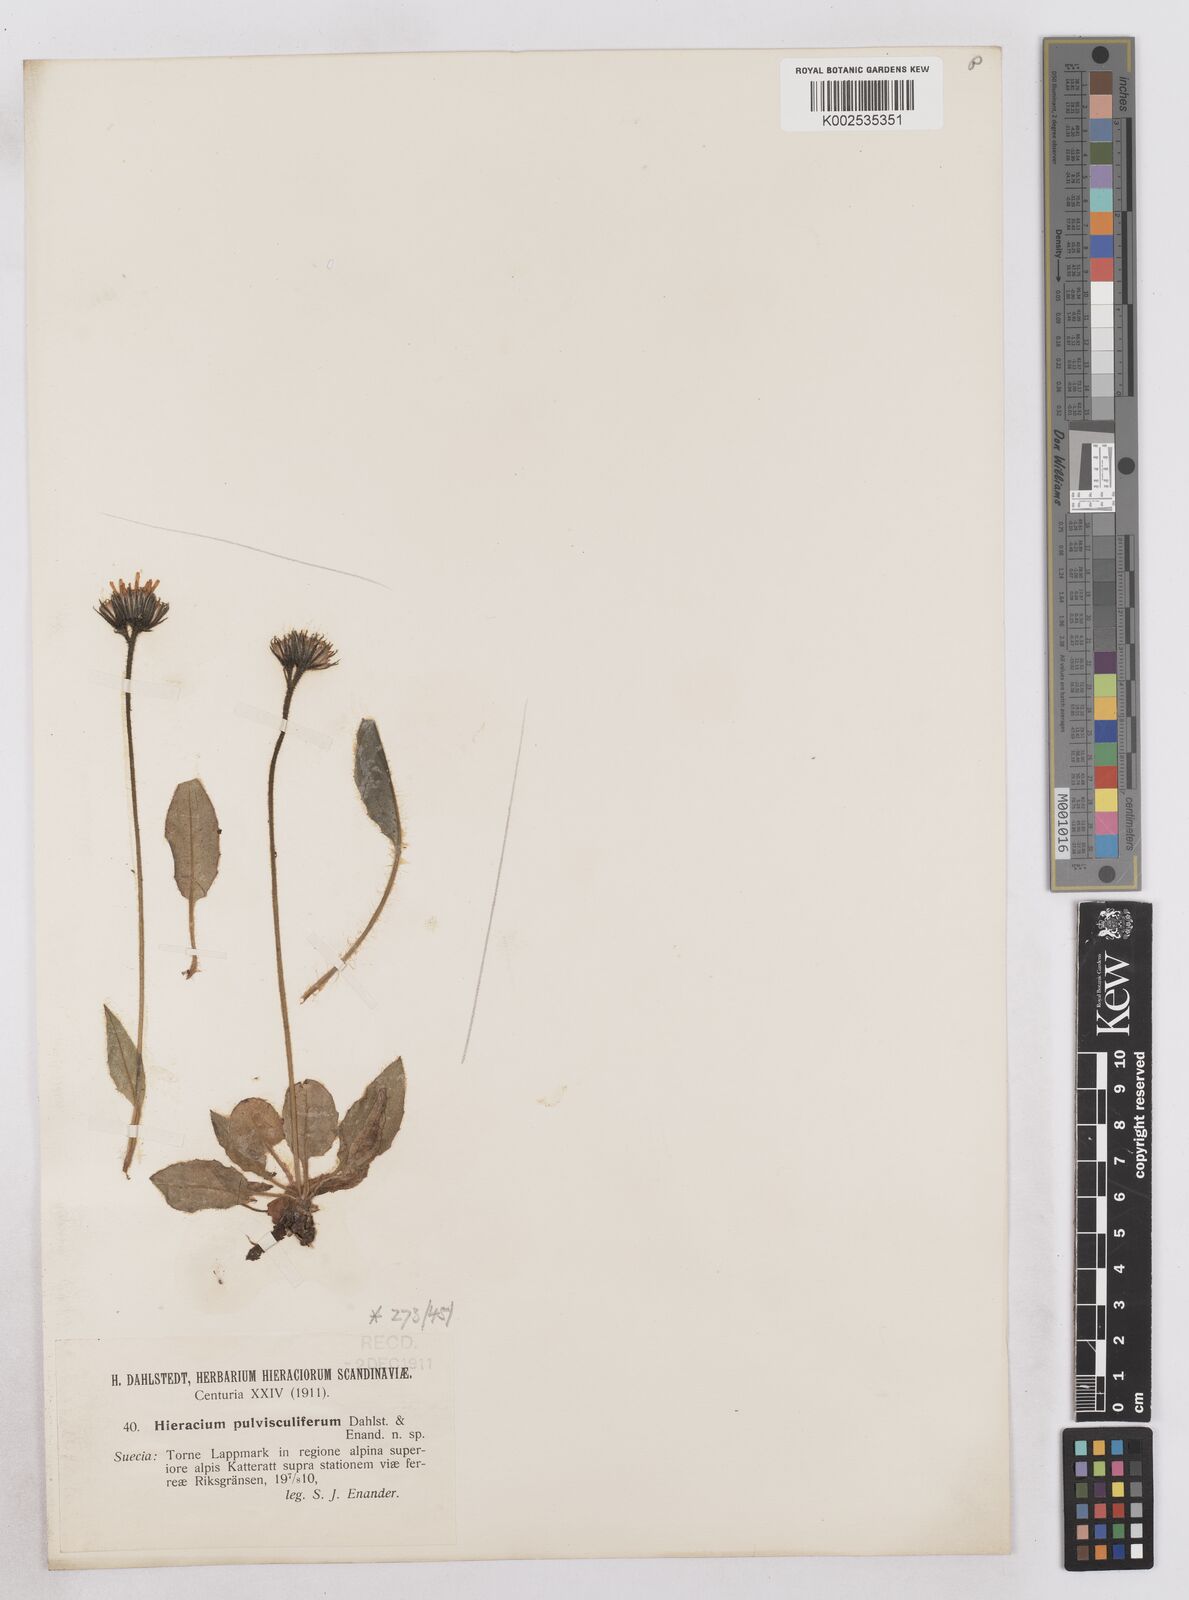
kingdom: Plantae
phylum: Tracheophyta
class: Magnoliopsida
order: Asterales
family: Asteraceae
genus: Hieracium
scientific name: Hieracium conspurcans
